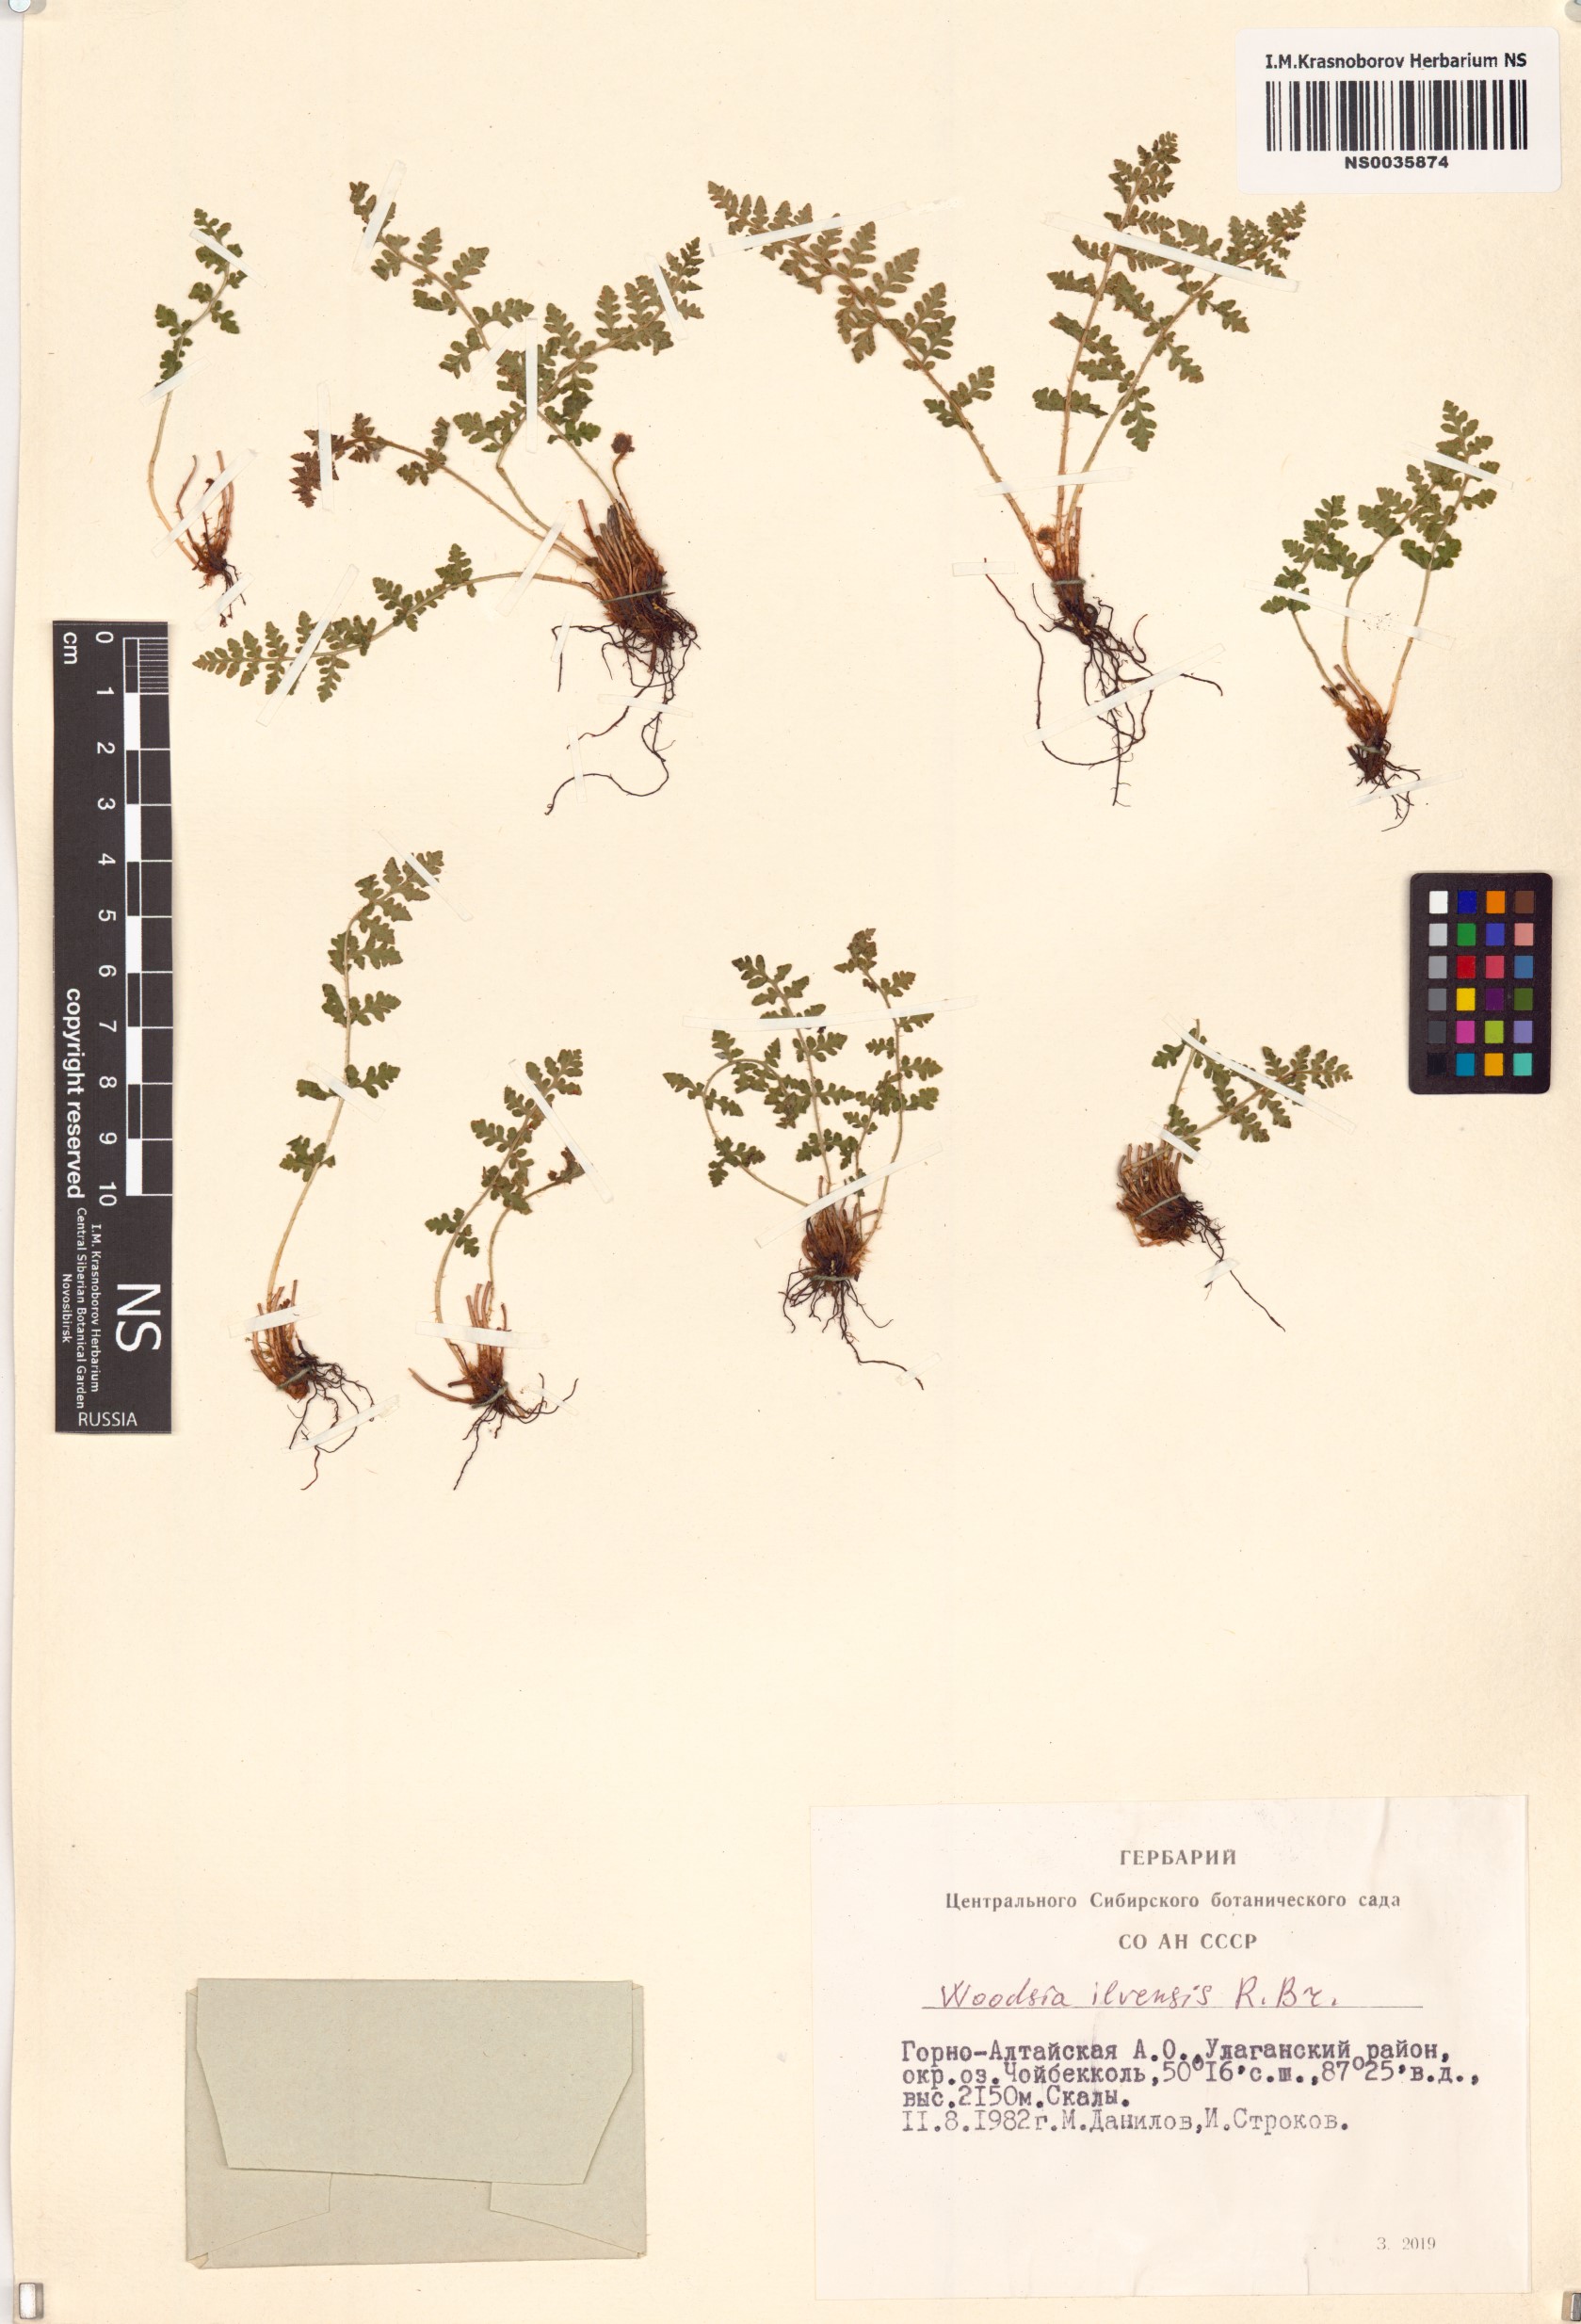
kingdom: Plantae
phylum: Tracheophyta
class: Polypodiopsida
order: Polypodiales
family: Woodsiaceae
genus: Woodsia
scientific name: Woodsia ilvensis
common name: Fragrant woodsia
